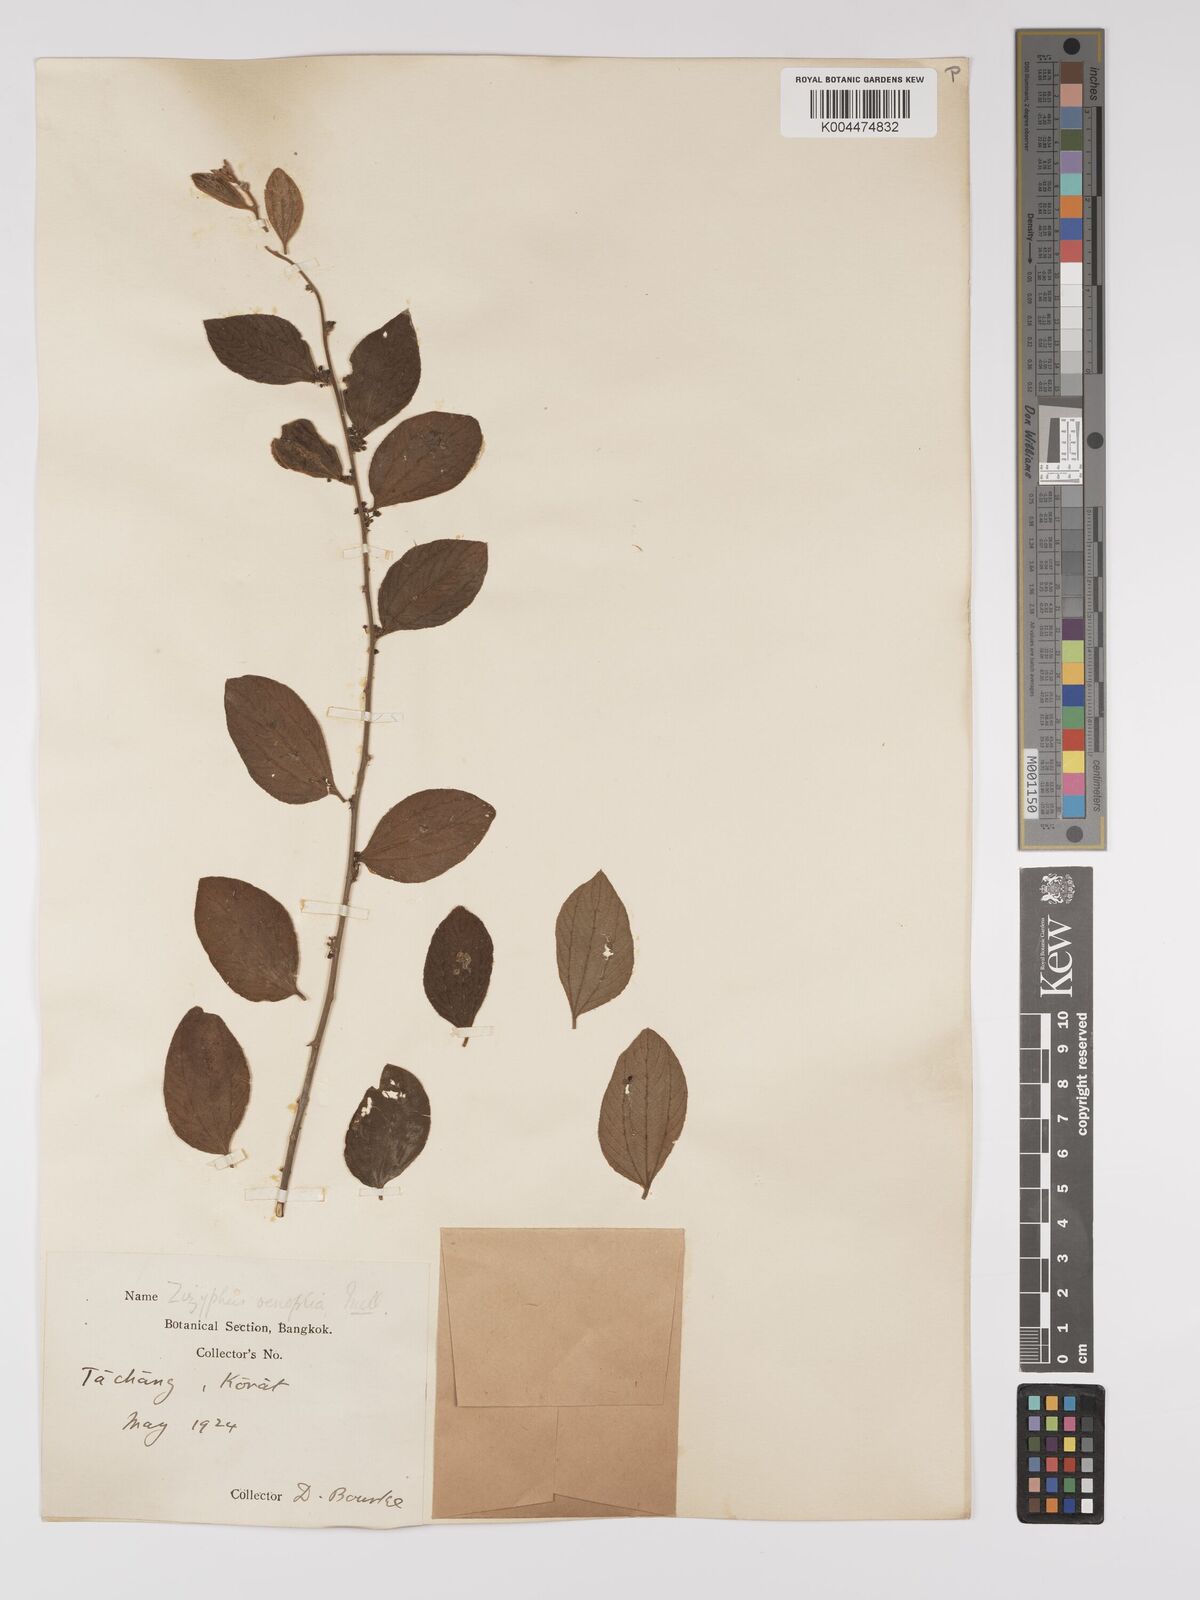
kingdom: Plantae
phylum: Tracheophyta
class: Magnoliopsida
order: Rosales
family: Rhamnaceae
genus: Ziziphus
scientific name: Ziziphus oenopolia
